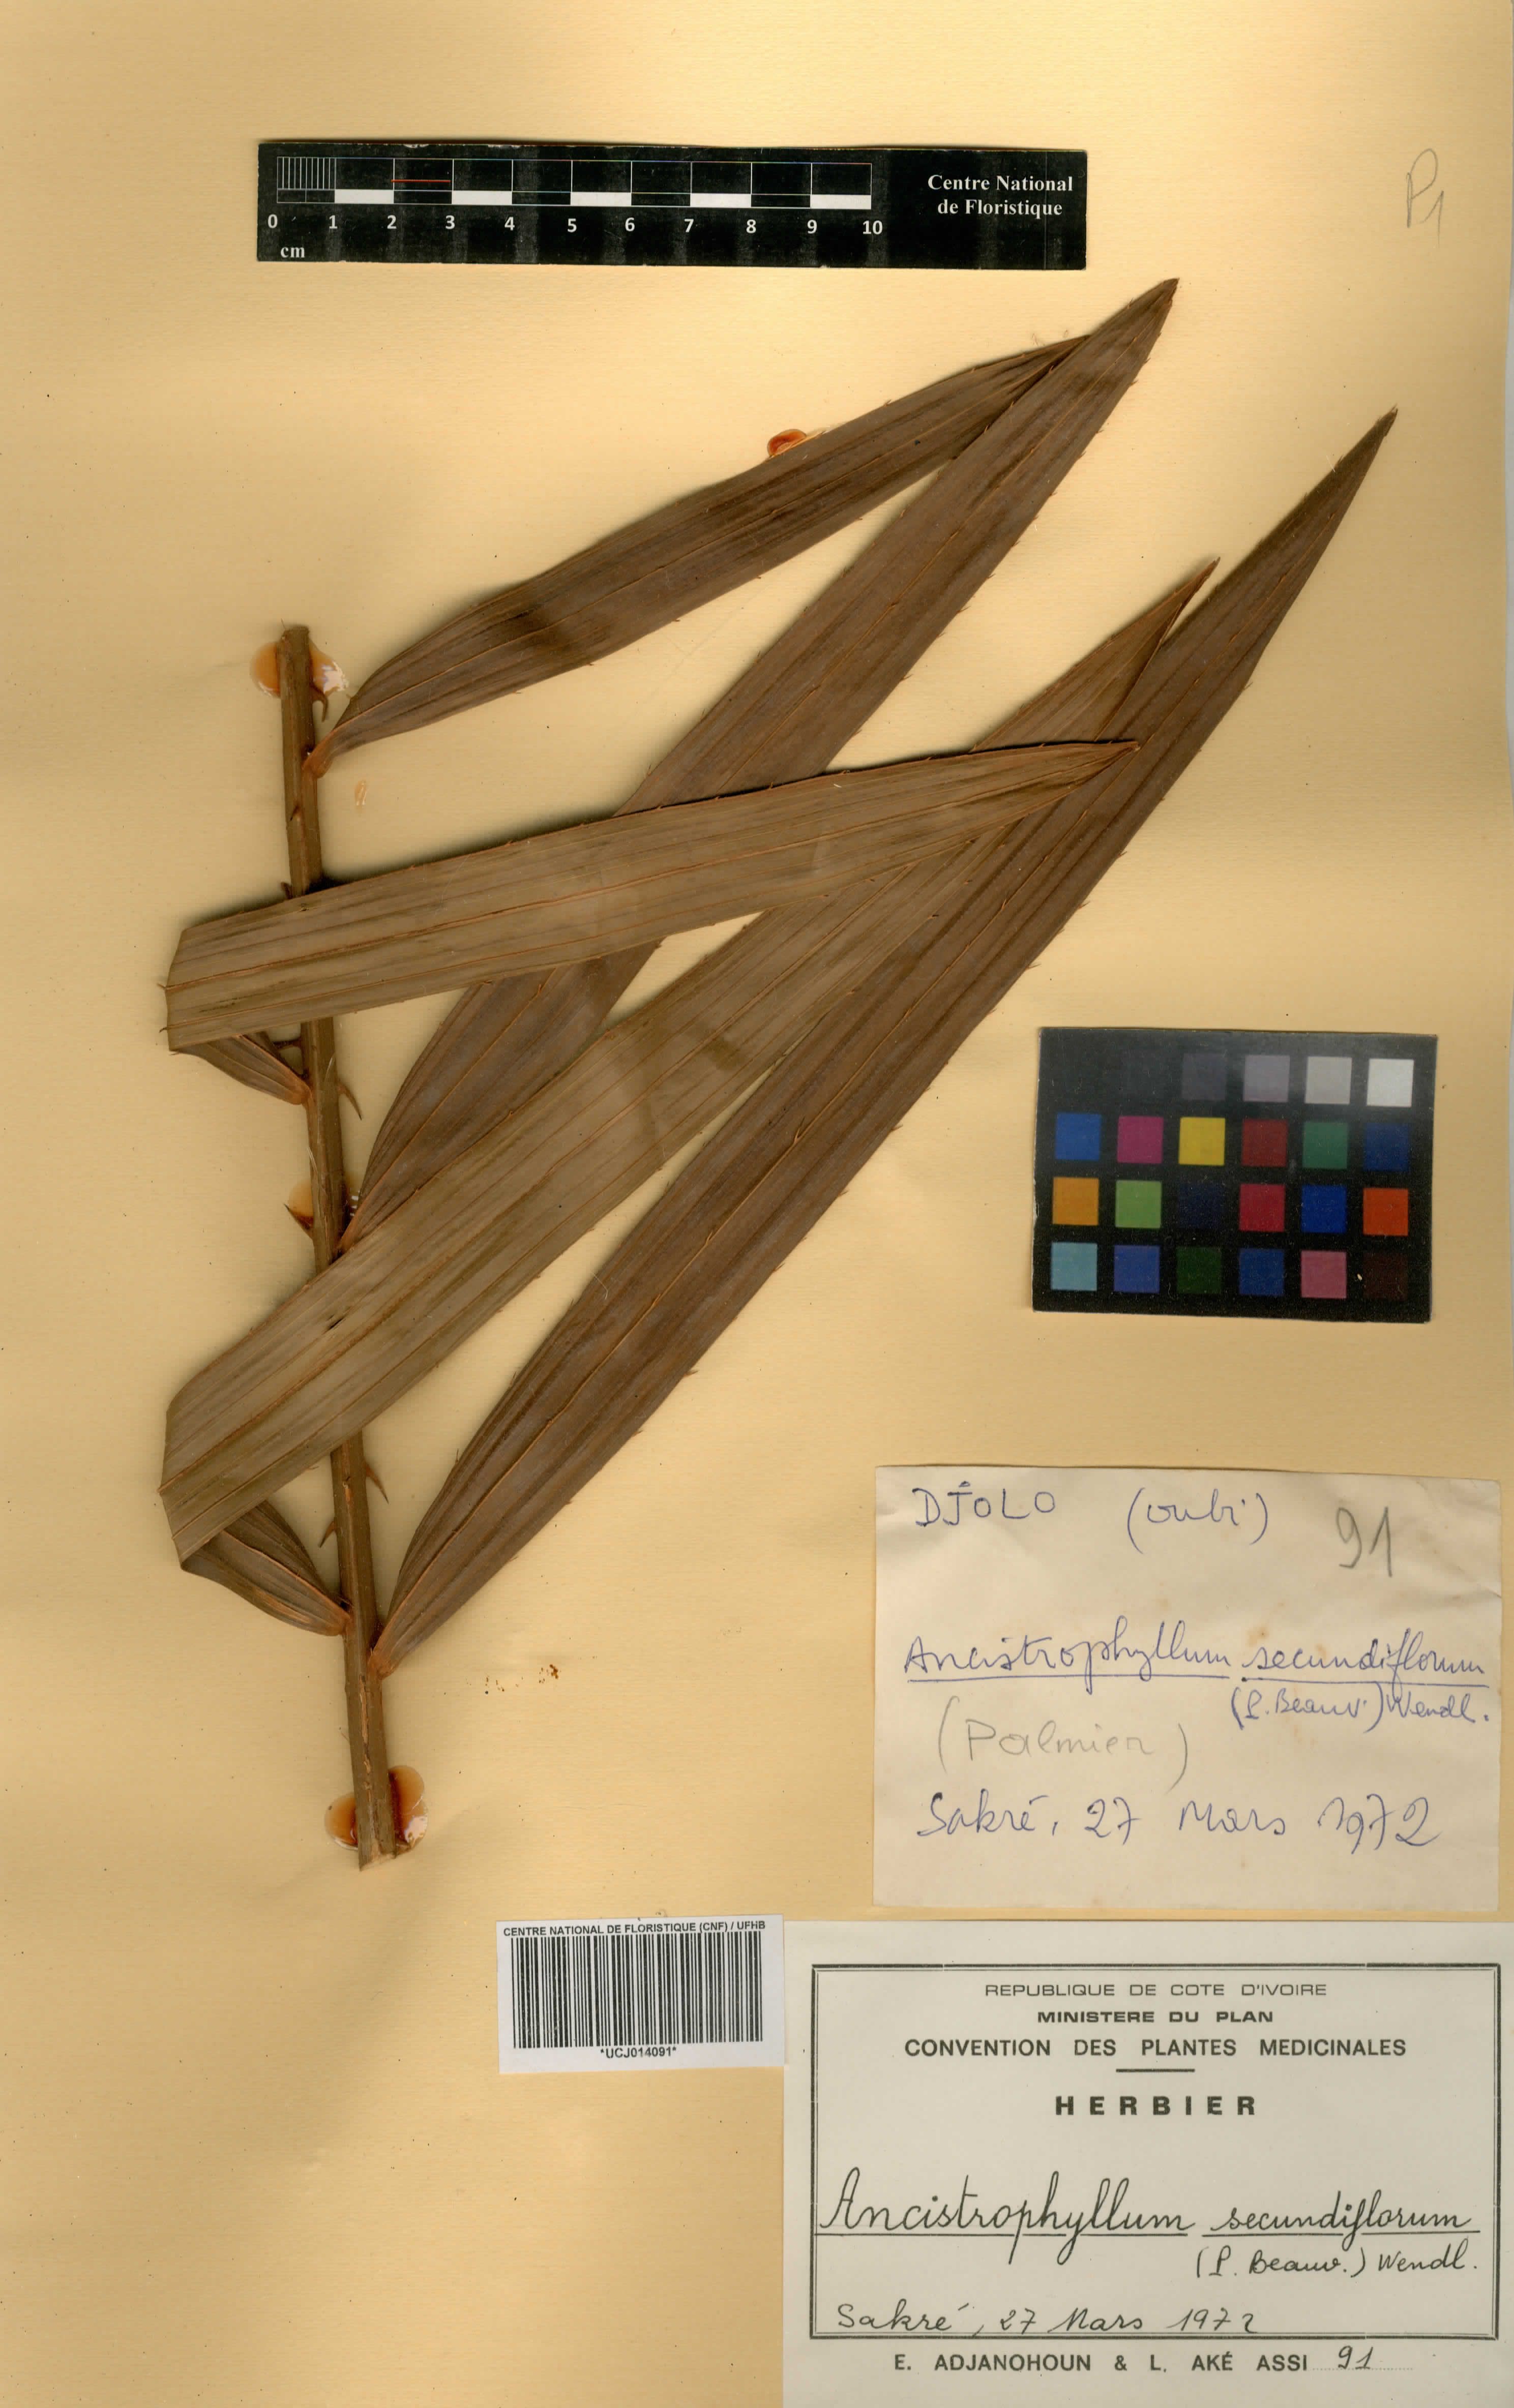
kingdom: Plantae
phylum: Tracheophyta
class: Liliopsida
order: Arecales
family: Arecaceae
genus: Laccosperma
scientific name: Laccosperma secundiflorum
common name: Rattan
